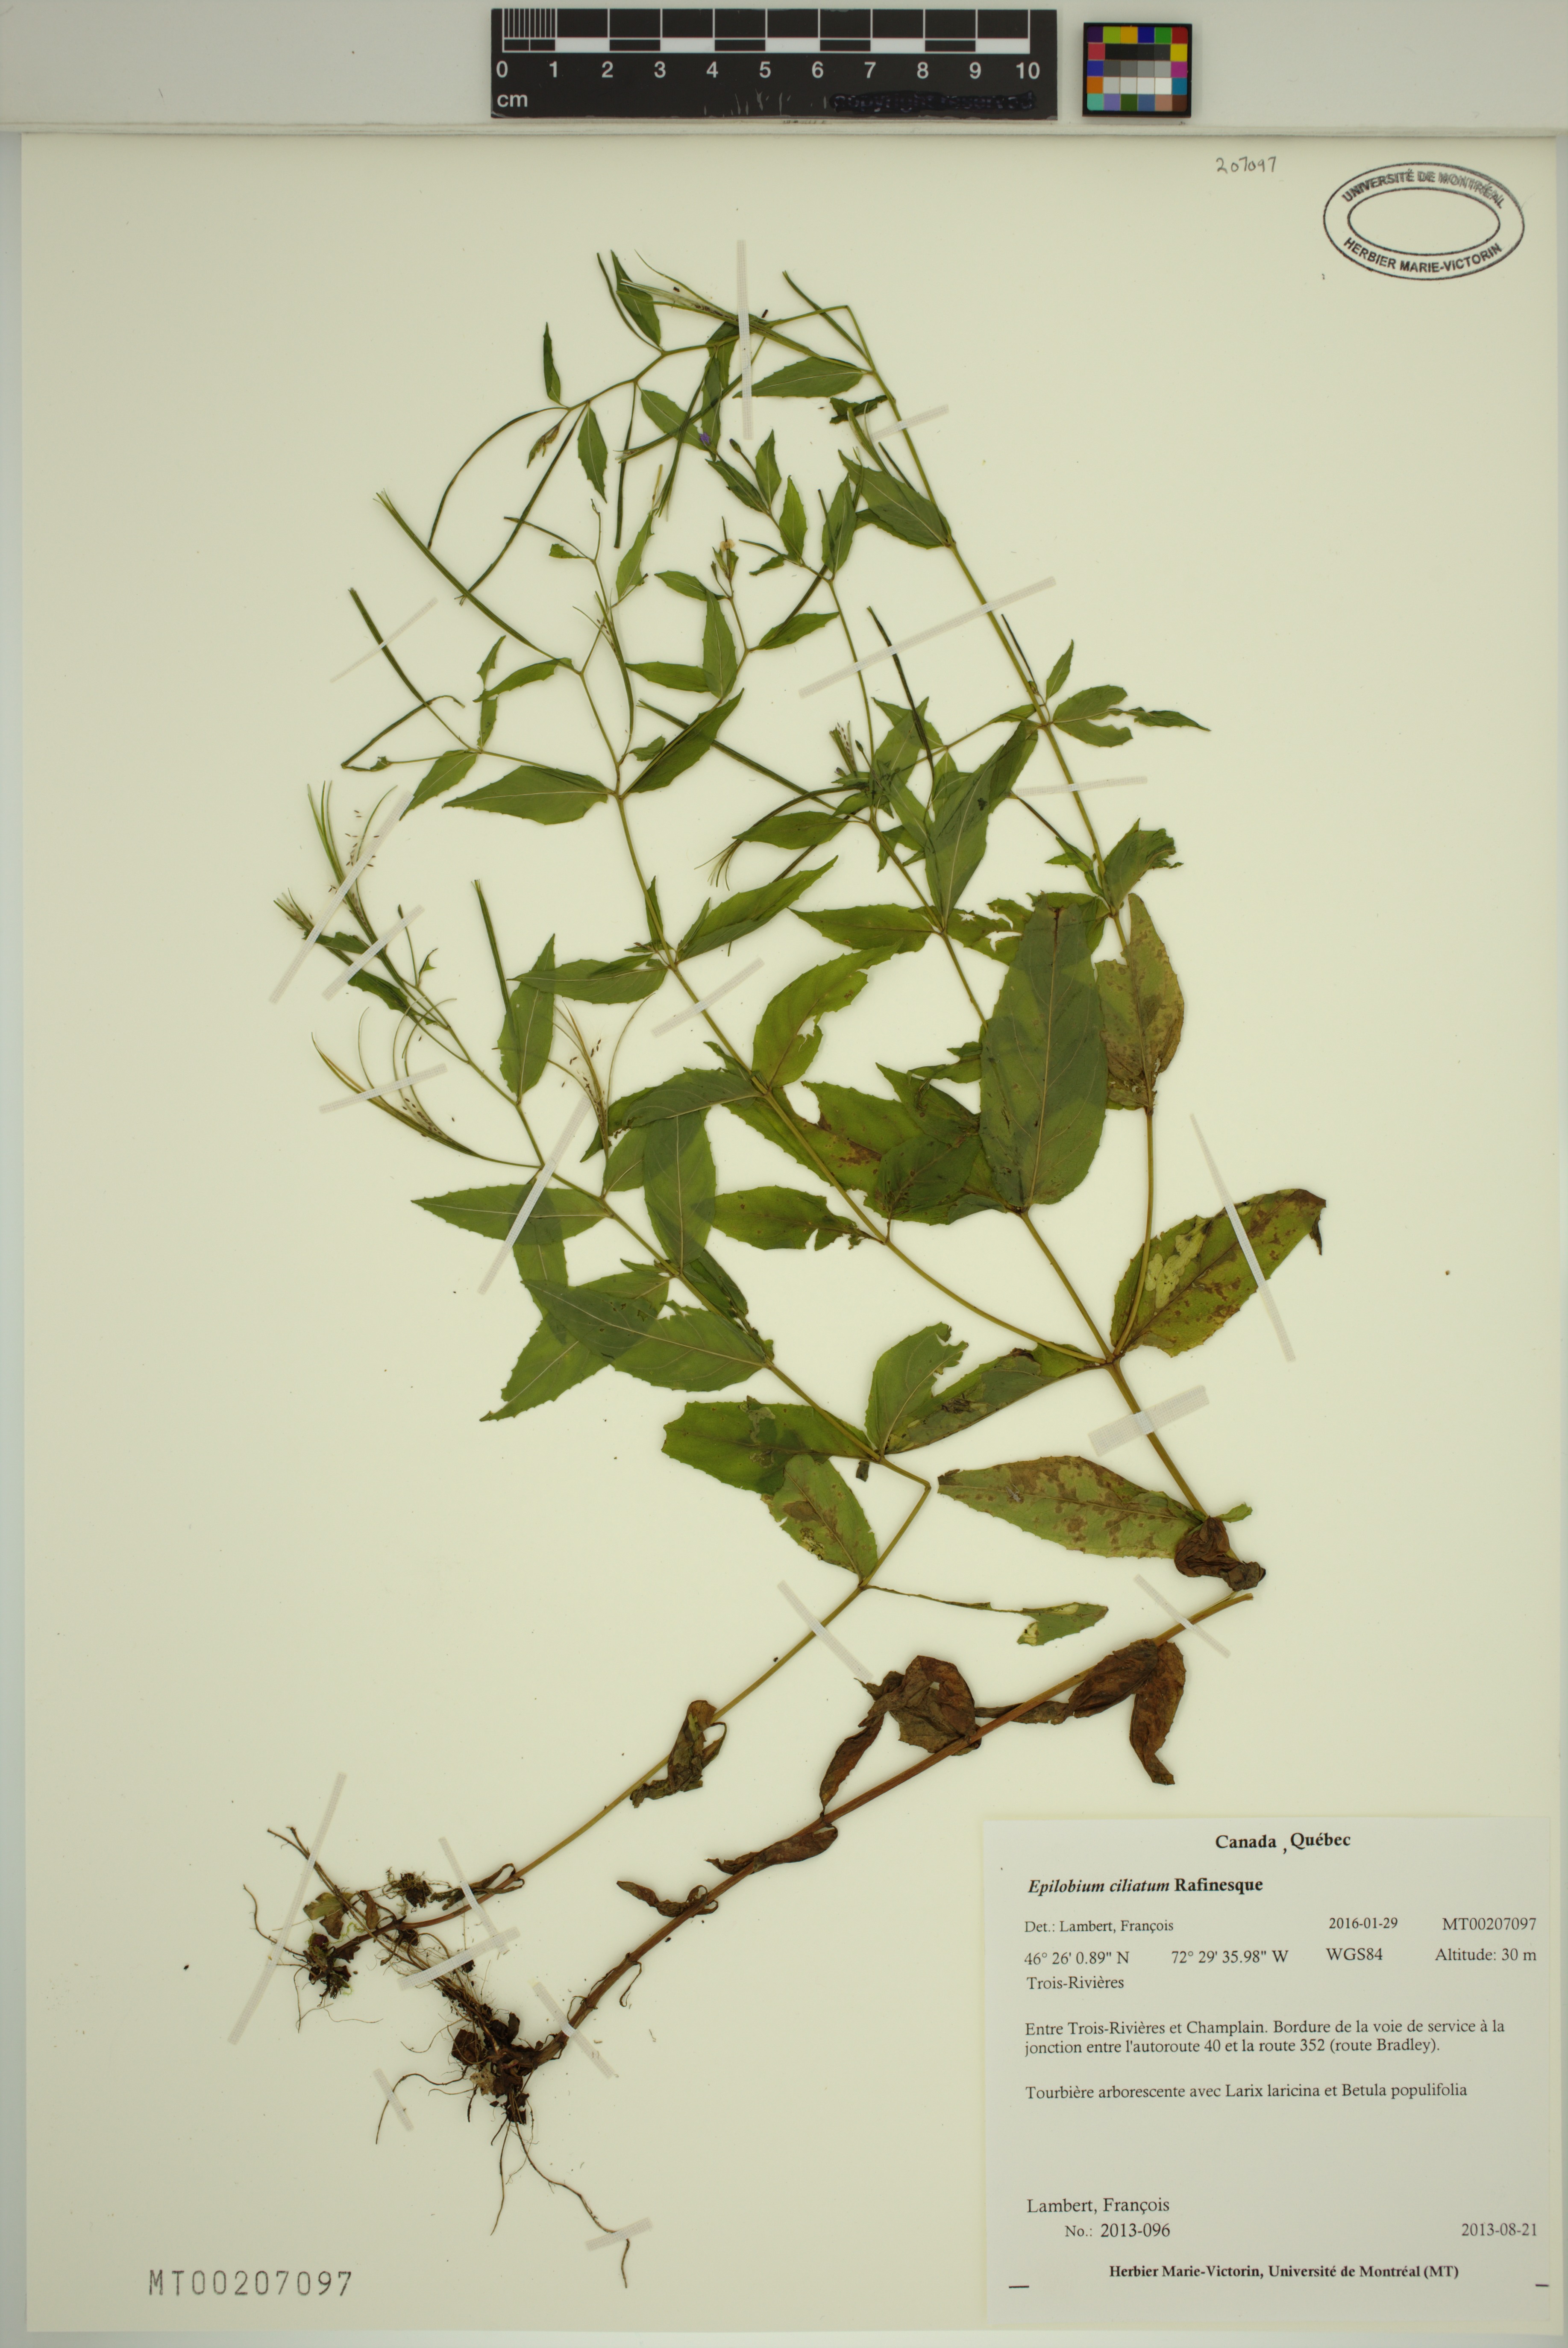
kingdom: Plantae
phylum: Tracheophyta
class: Magnoliopsida
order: Myrtales
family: Onagraceae
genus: Epilobium
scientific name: Epilobium ciliatum
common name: American willowherb
